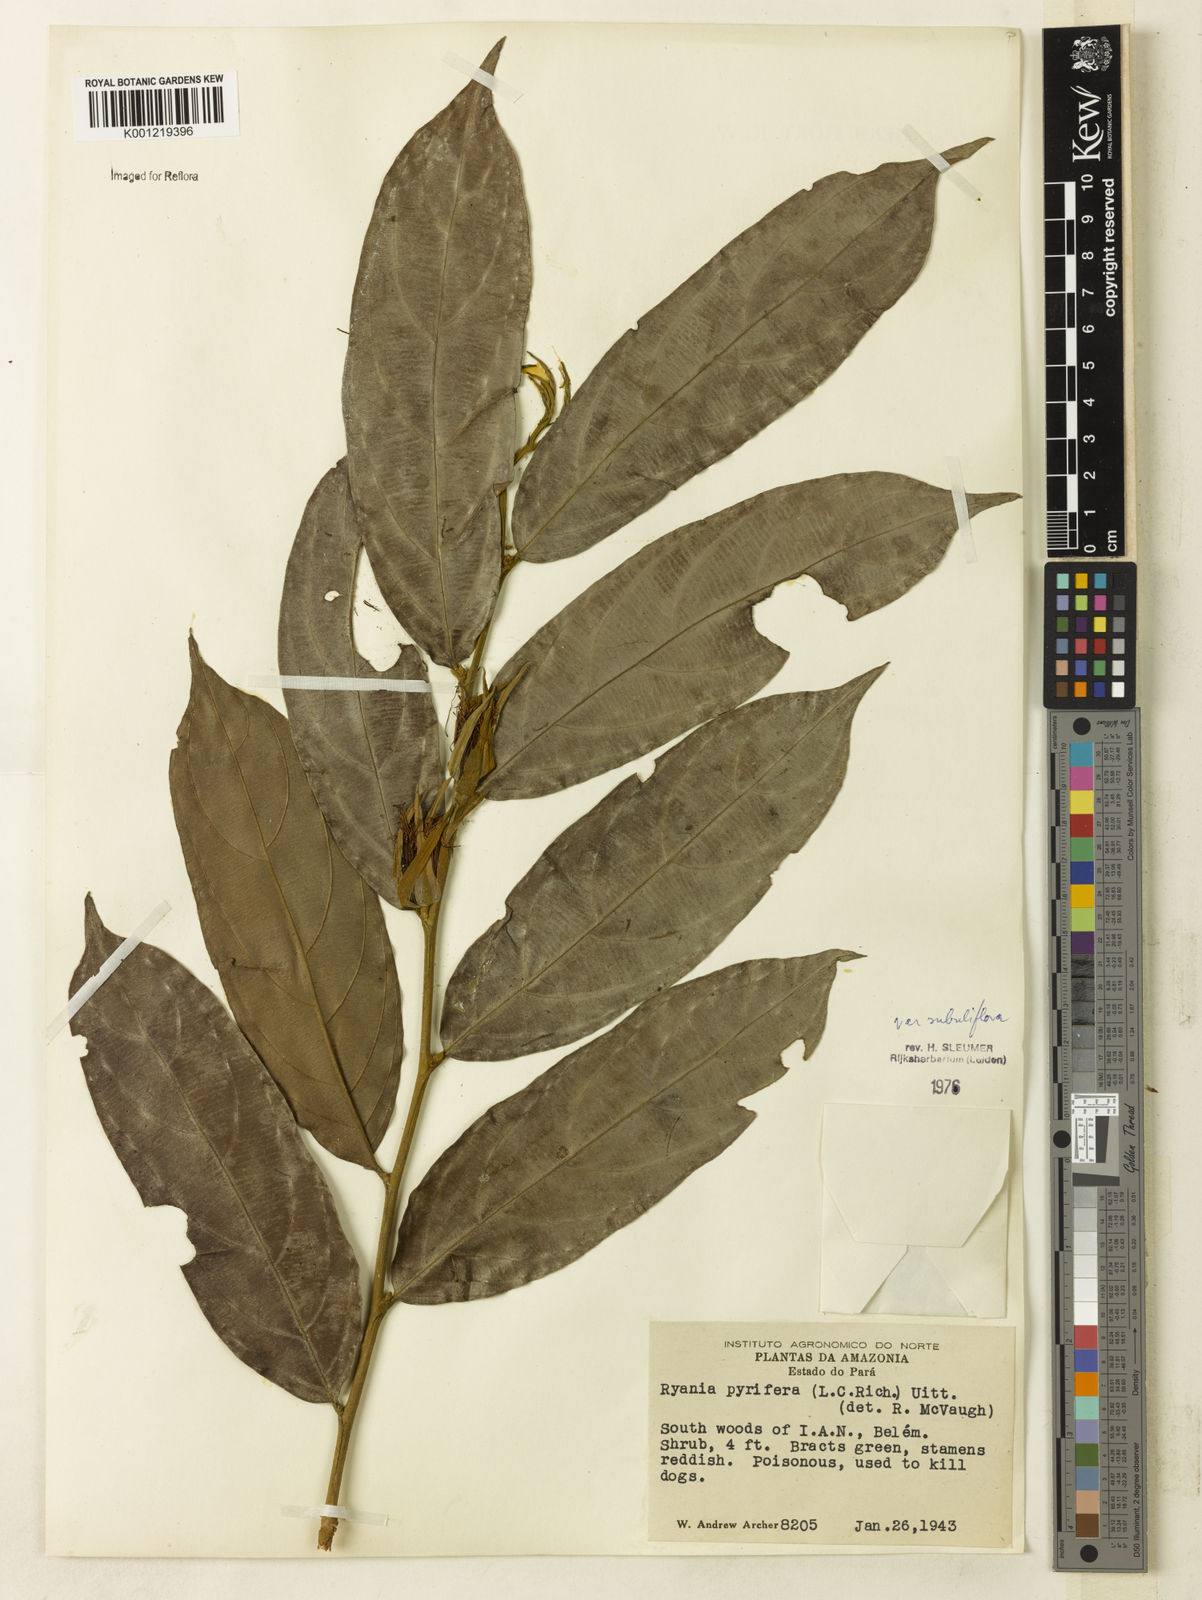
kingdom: Plantae
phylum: Tracheophyta
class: Magnoliopsida
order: Malpighiales
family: Salicaceae
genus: Ryania
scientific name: Ryania speciosa
